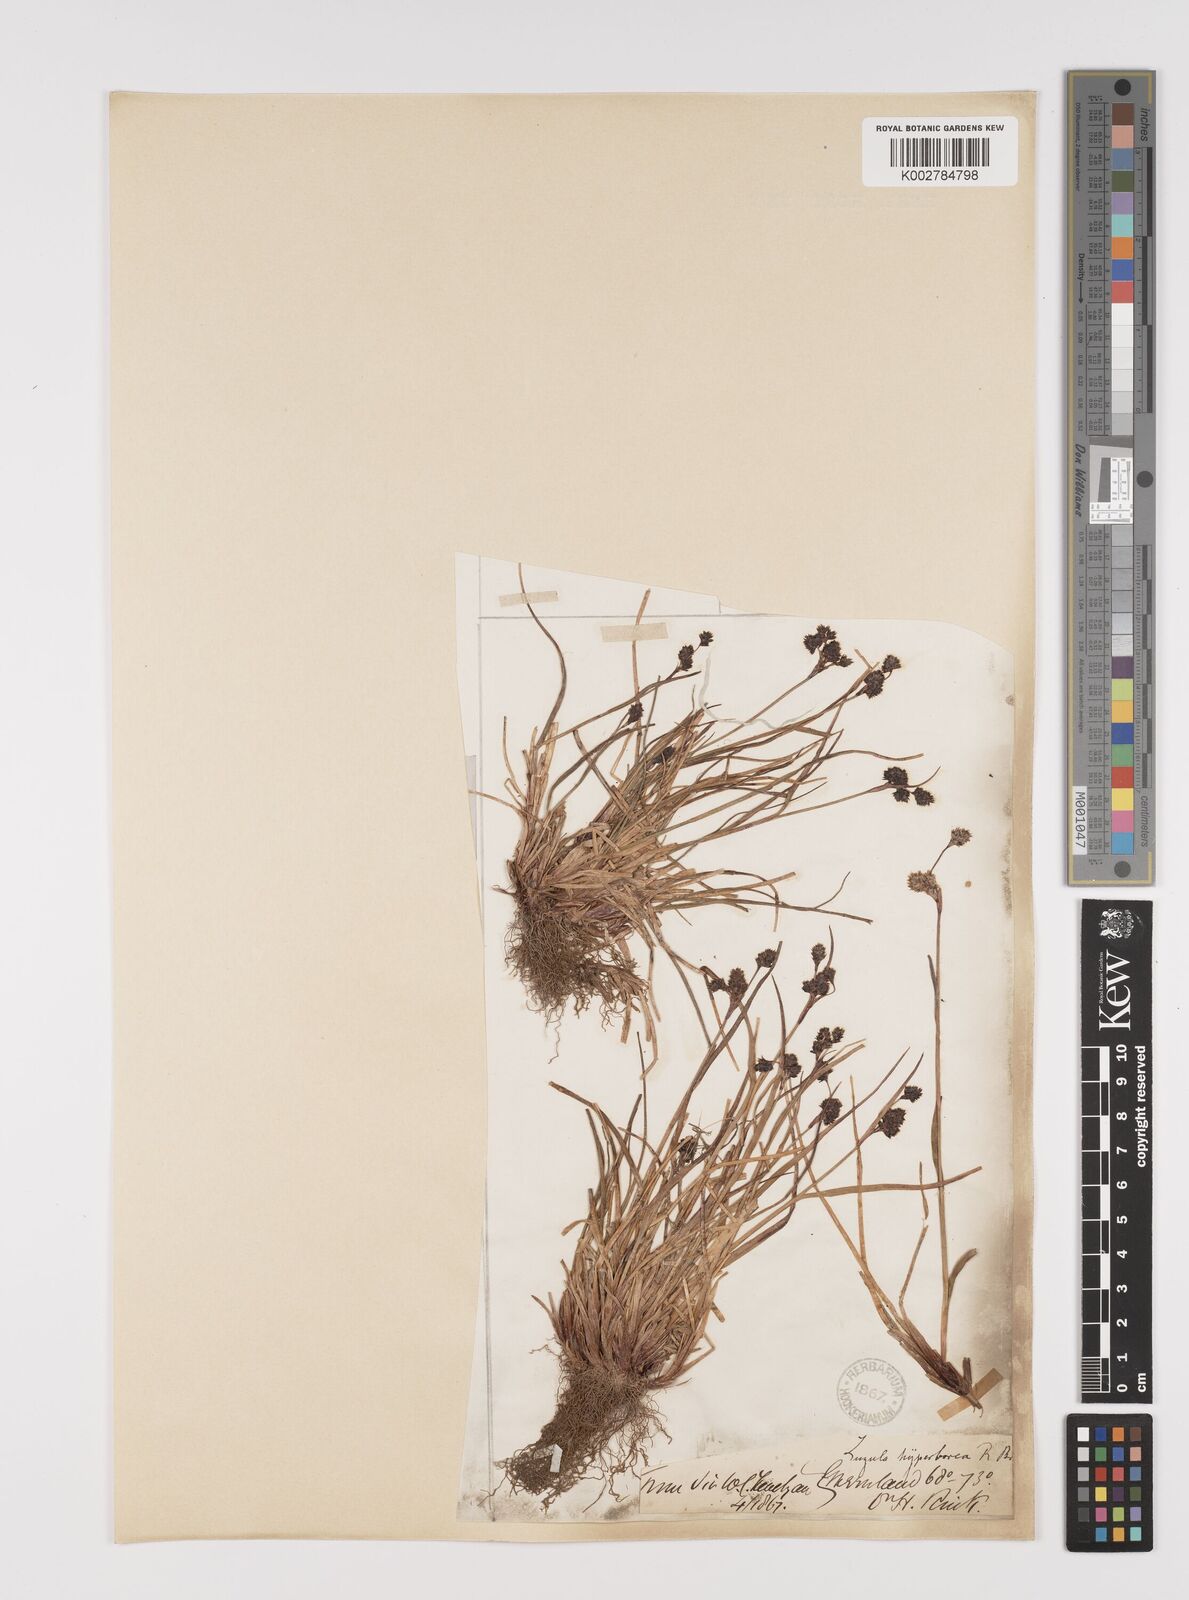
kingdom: Plantae
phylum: Tracheophyta
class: Liliopsida
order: Poales
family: Juncaceae
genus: Luzula
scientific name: Luzula confusa
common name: Northern wood rush
